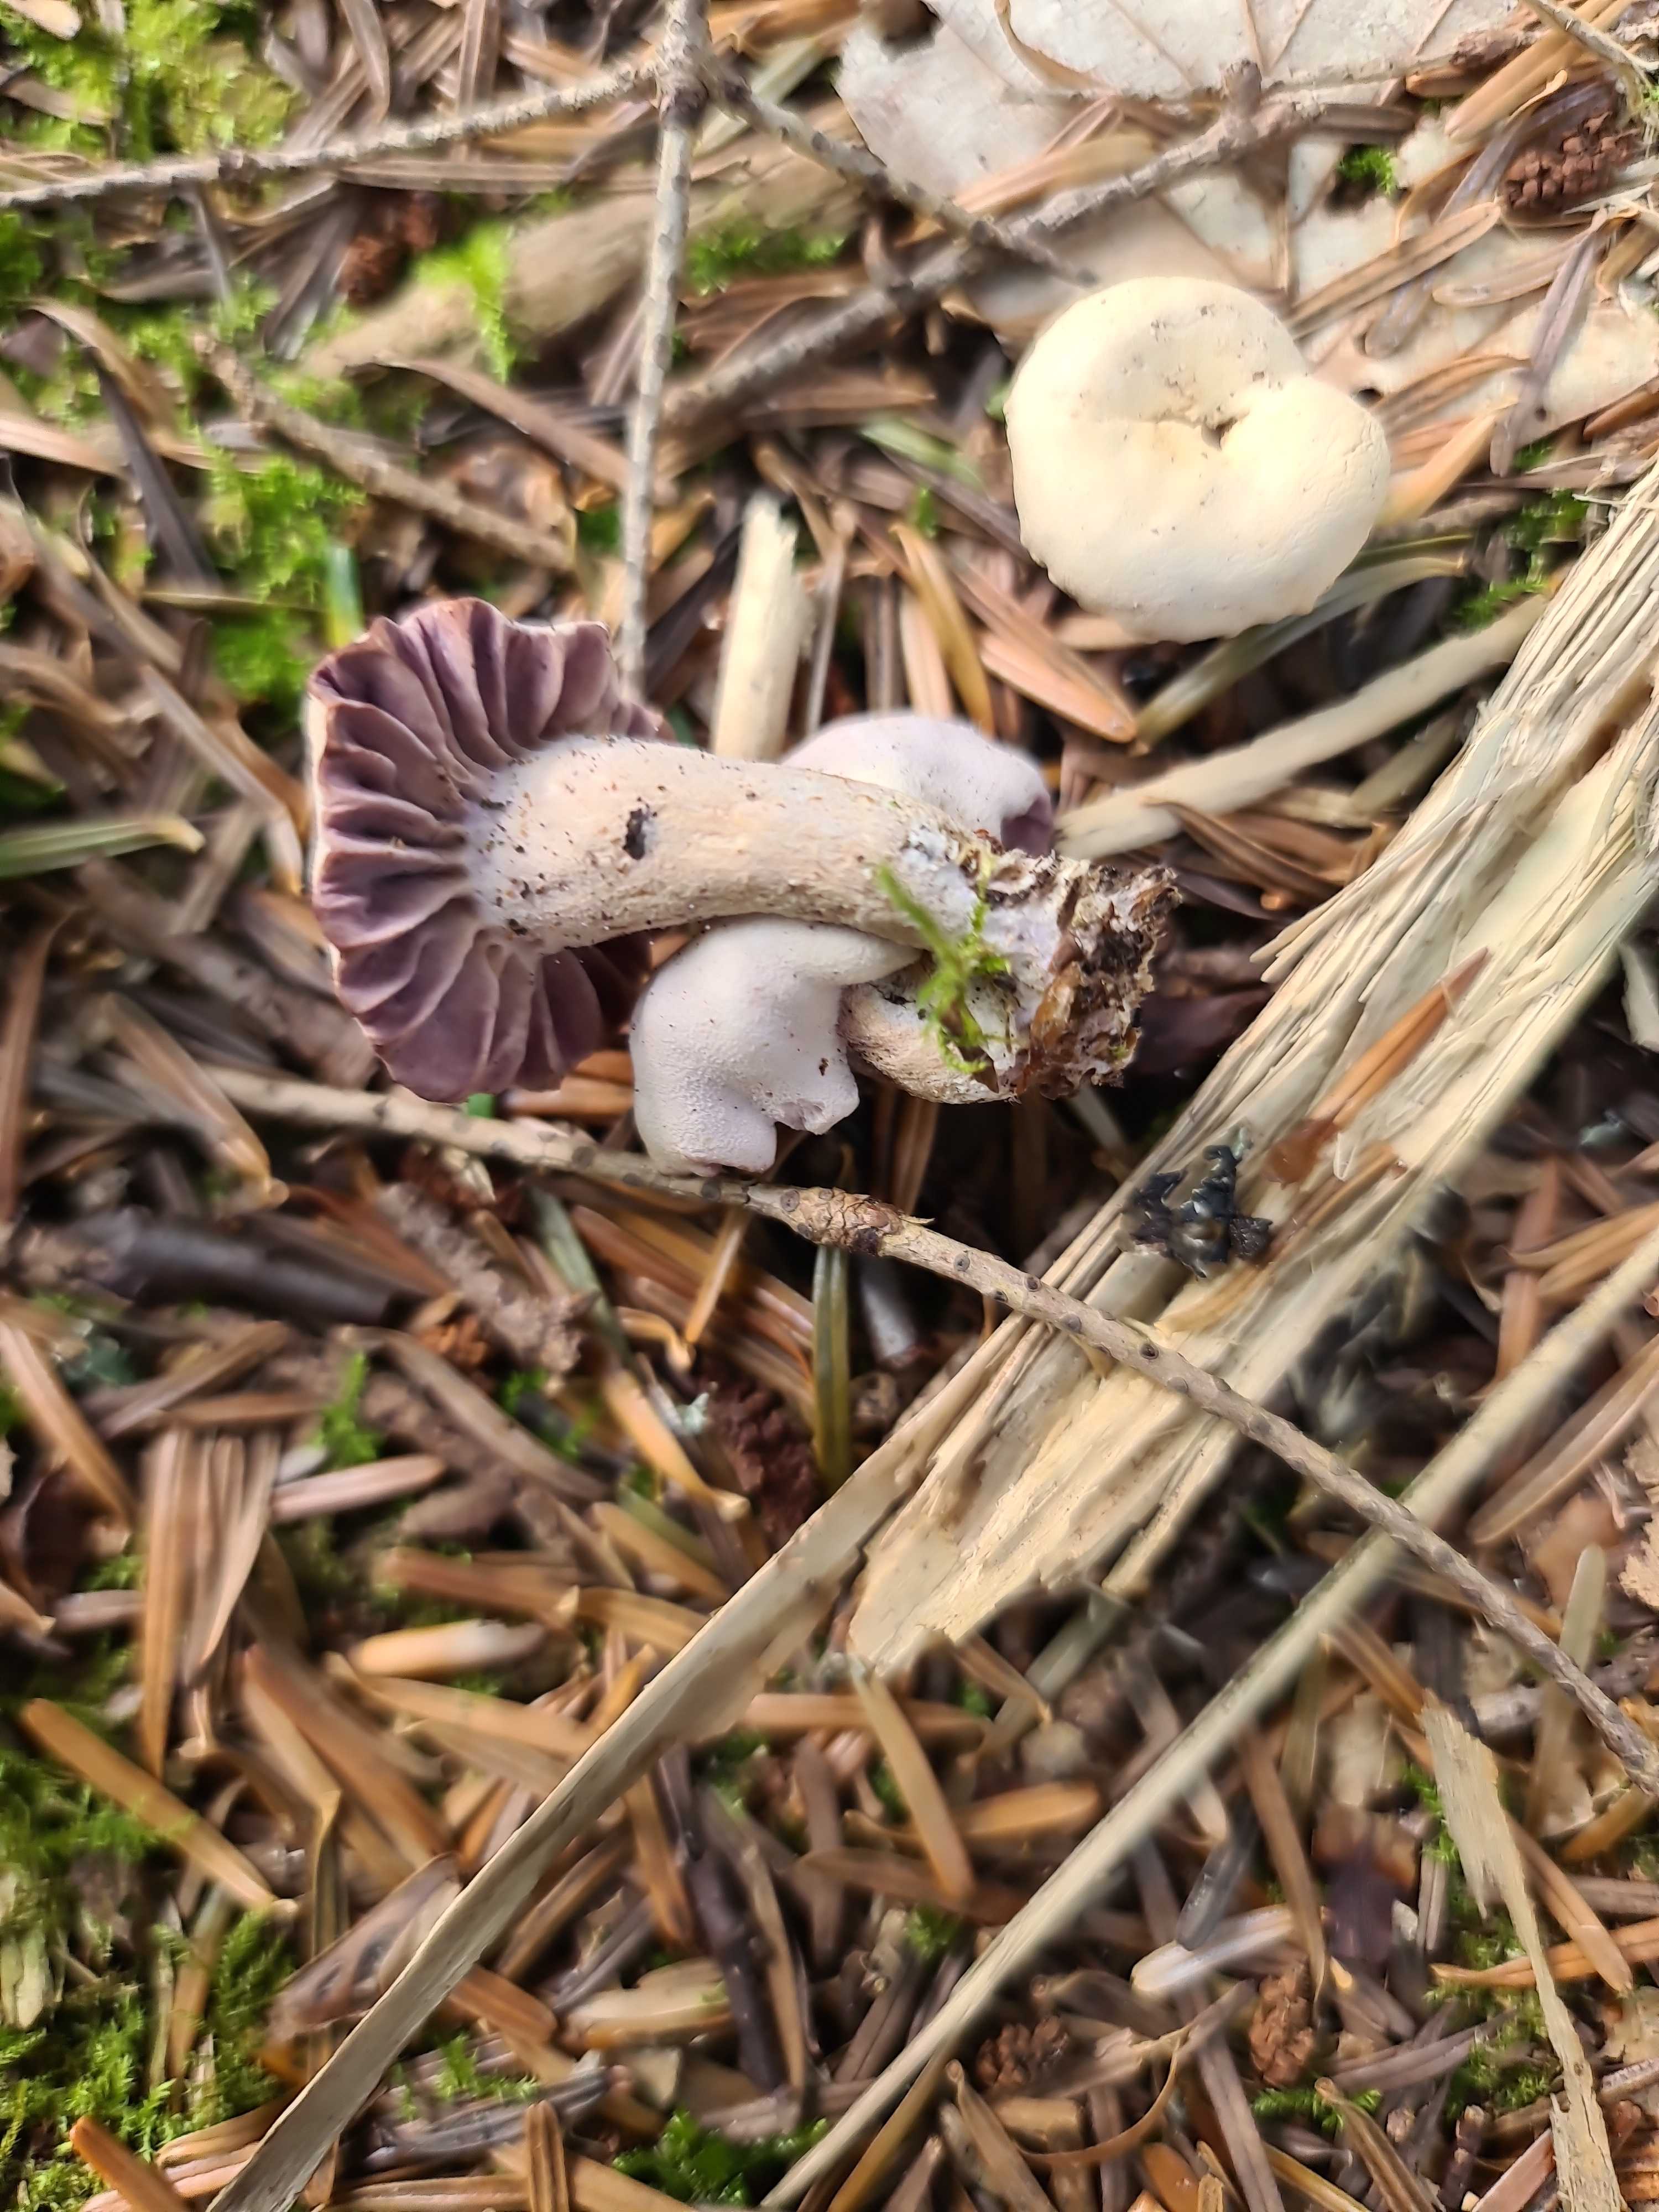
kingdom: Fungi
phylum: Basidiomycota
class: Agaricomycetes
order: Agaricales
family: Hydnangiaceae
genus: Laccaria
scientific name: Laccaria amethystina
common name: violet ametysthat
